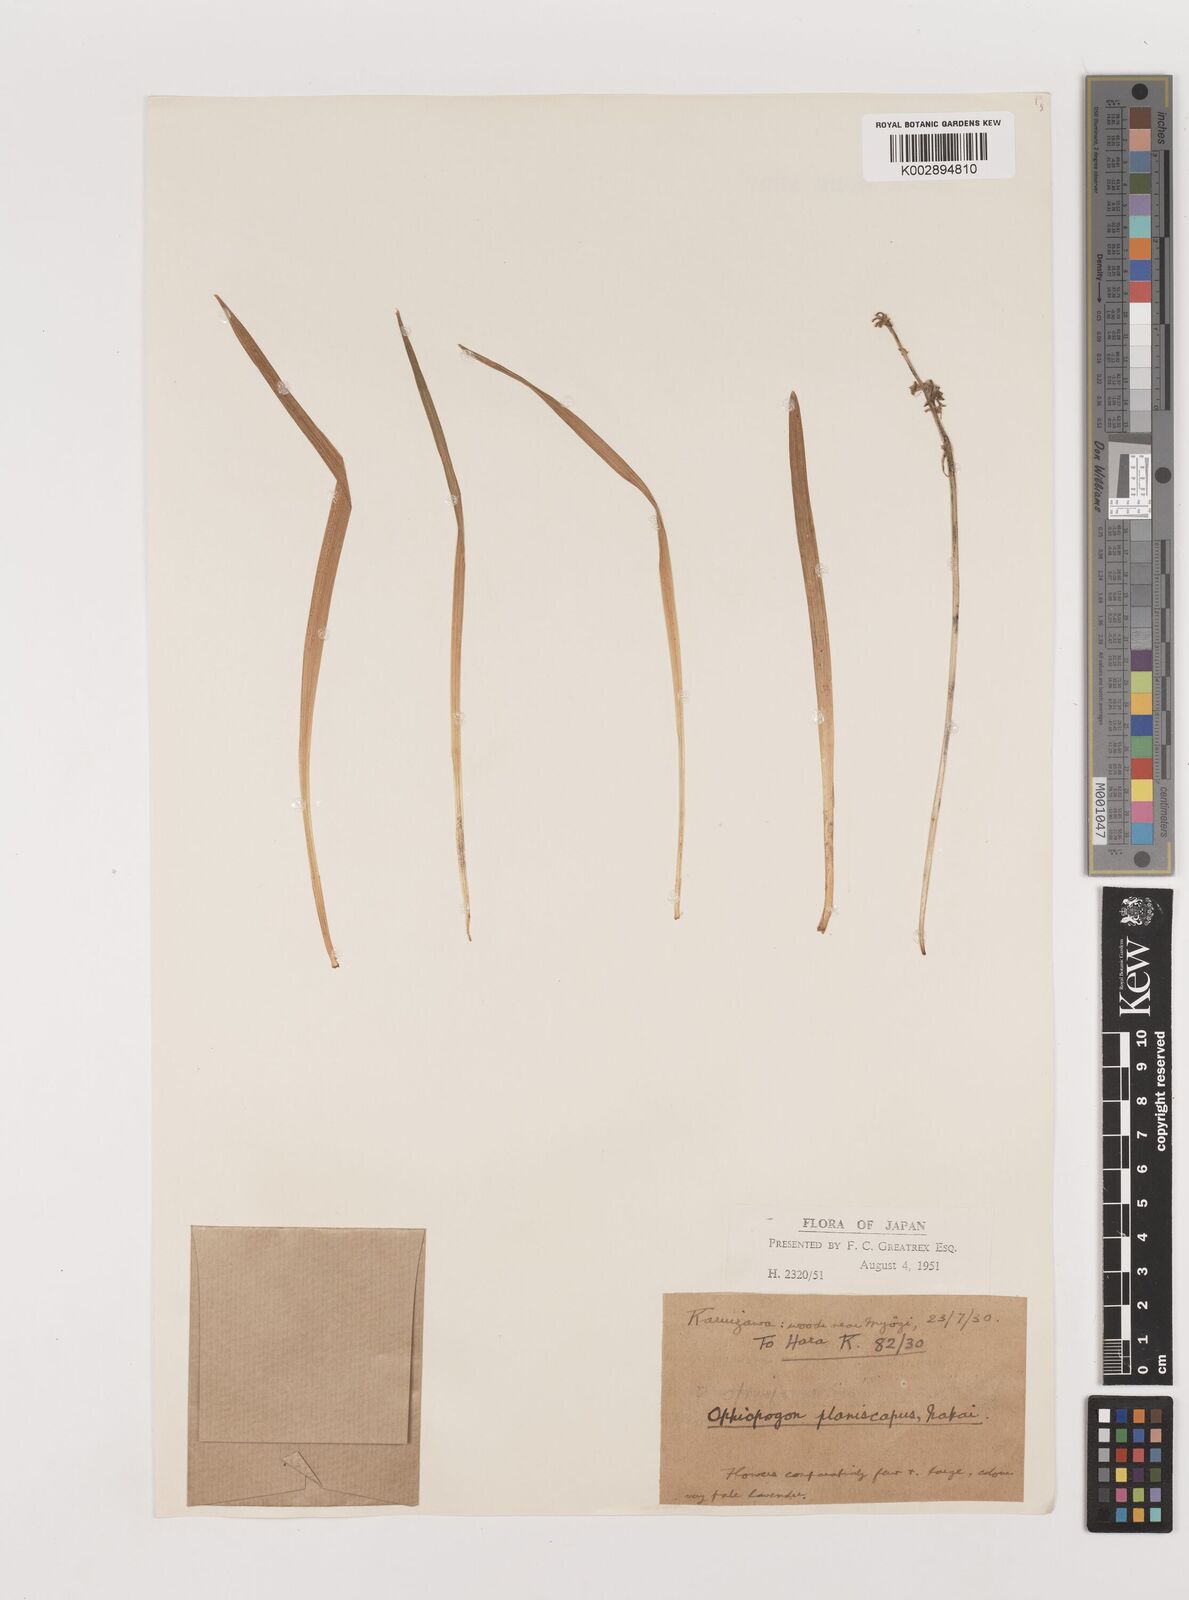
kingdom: Plantae
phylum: Tracheophyta
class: Liliopsida
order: Asparagales
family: Asparagaceae
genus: Ophiopogon
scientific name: Ophiopogon planiscapus
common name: Black mondo
